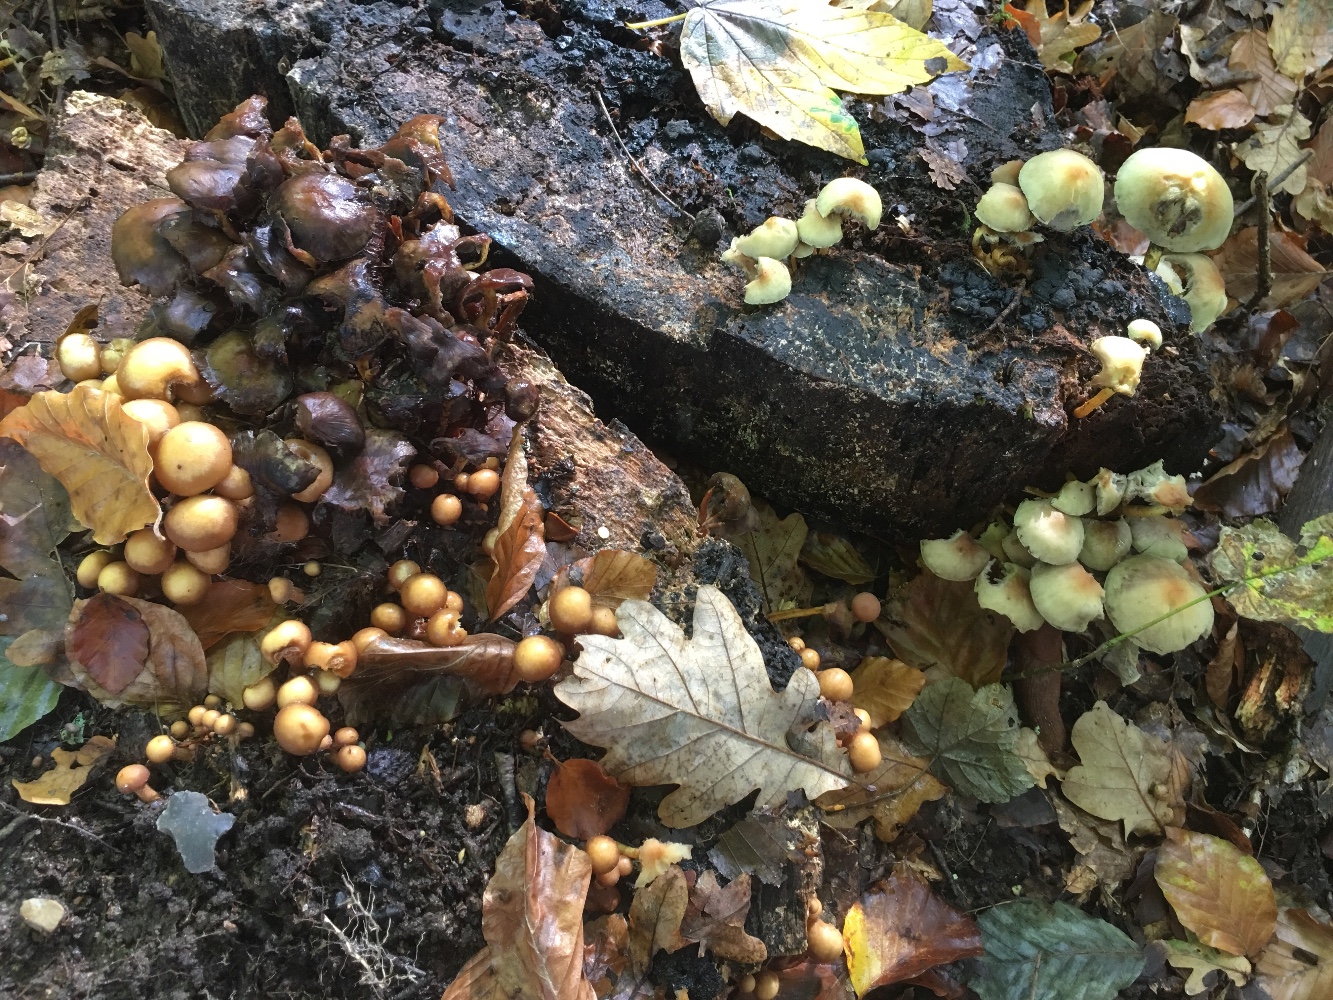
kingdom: Fungi
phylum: Basidiomycota
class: Agaricomycetes
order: Agaricales
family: Strophariaceae
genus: Hypholoma
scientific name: Hypholoma fasciculare
